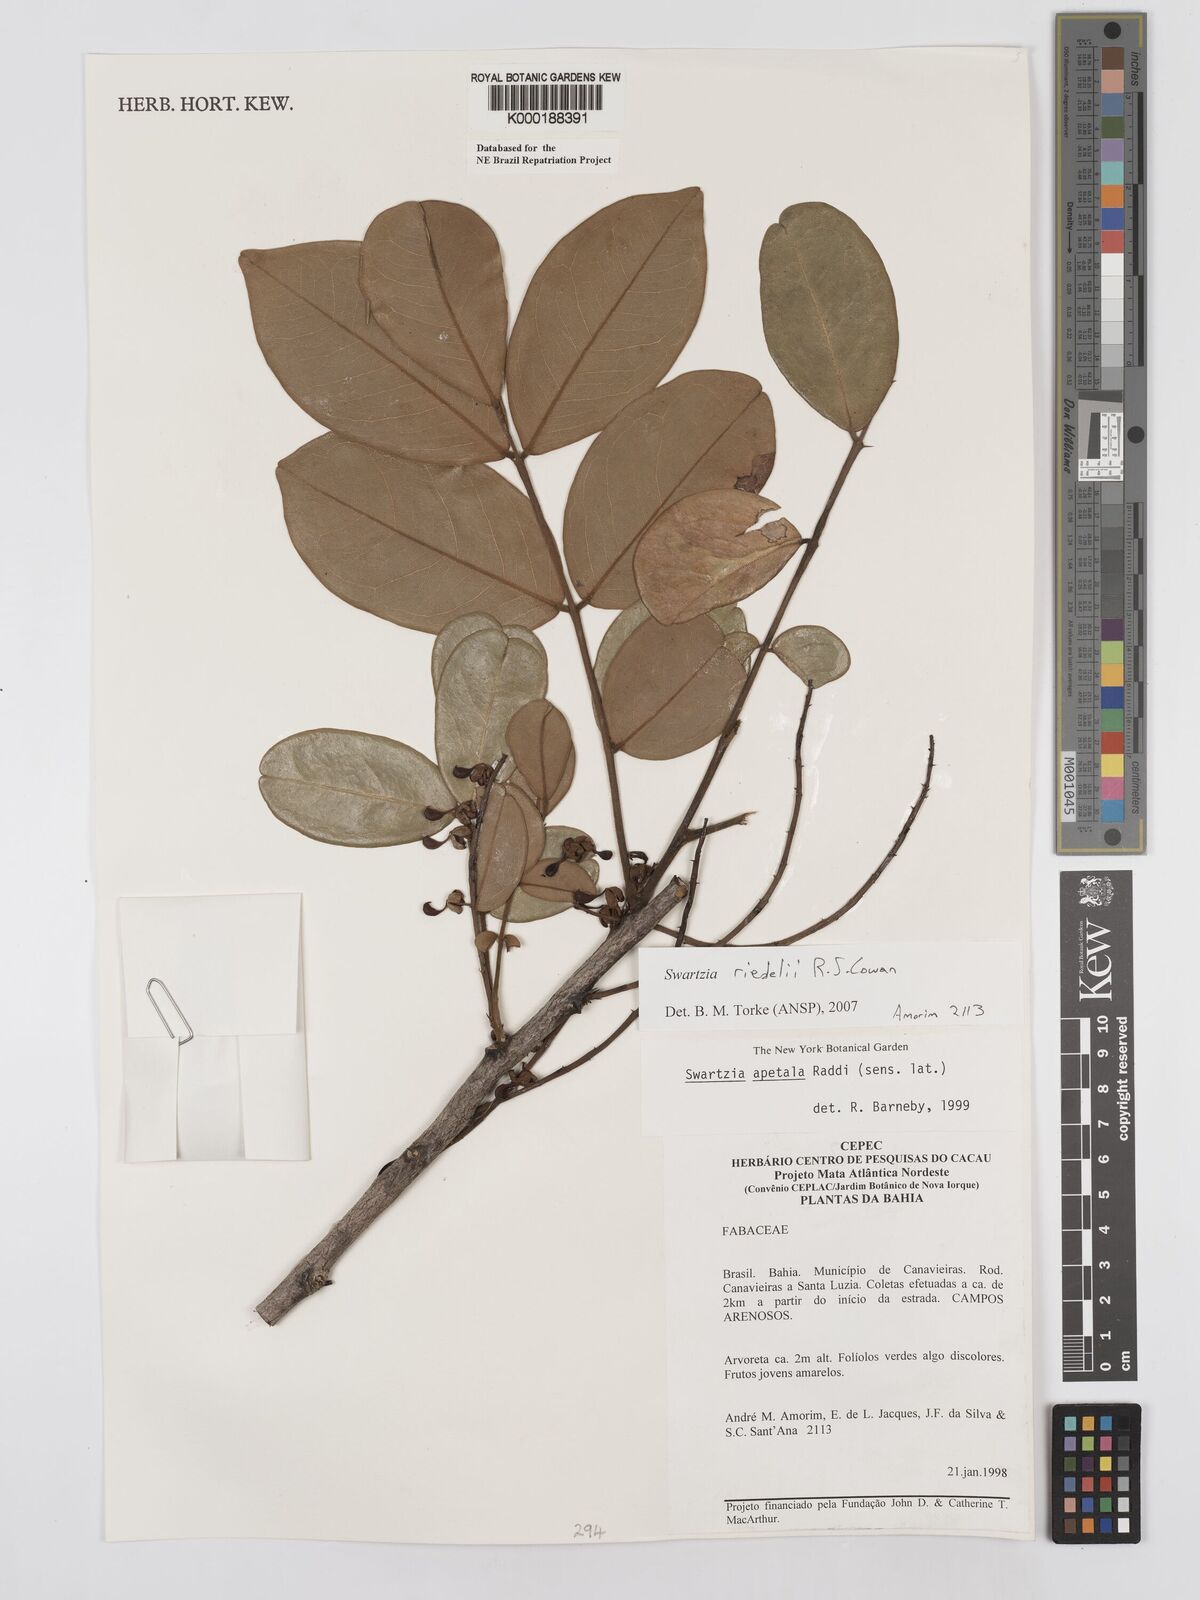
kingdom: Plantae
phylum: Tracheophyta
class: Magnoliopsida
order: Fabales
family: Fabaceae
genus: Swartzia
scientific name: Swartzia apetala
